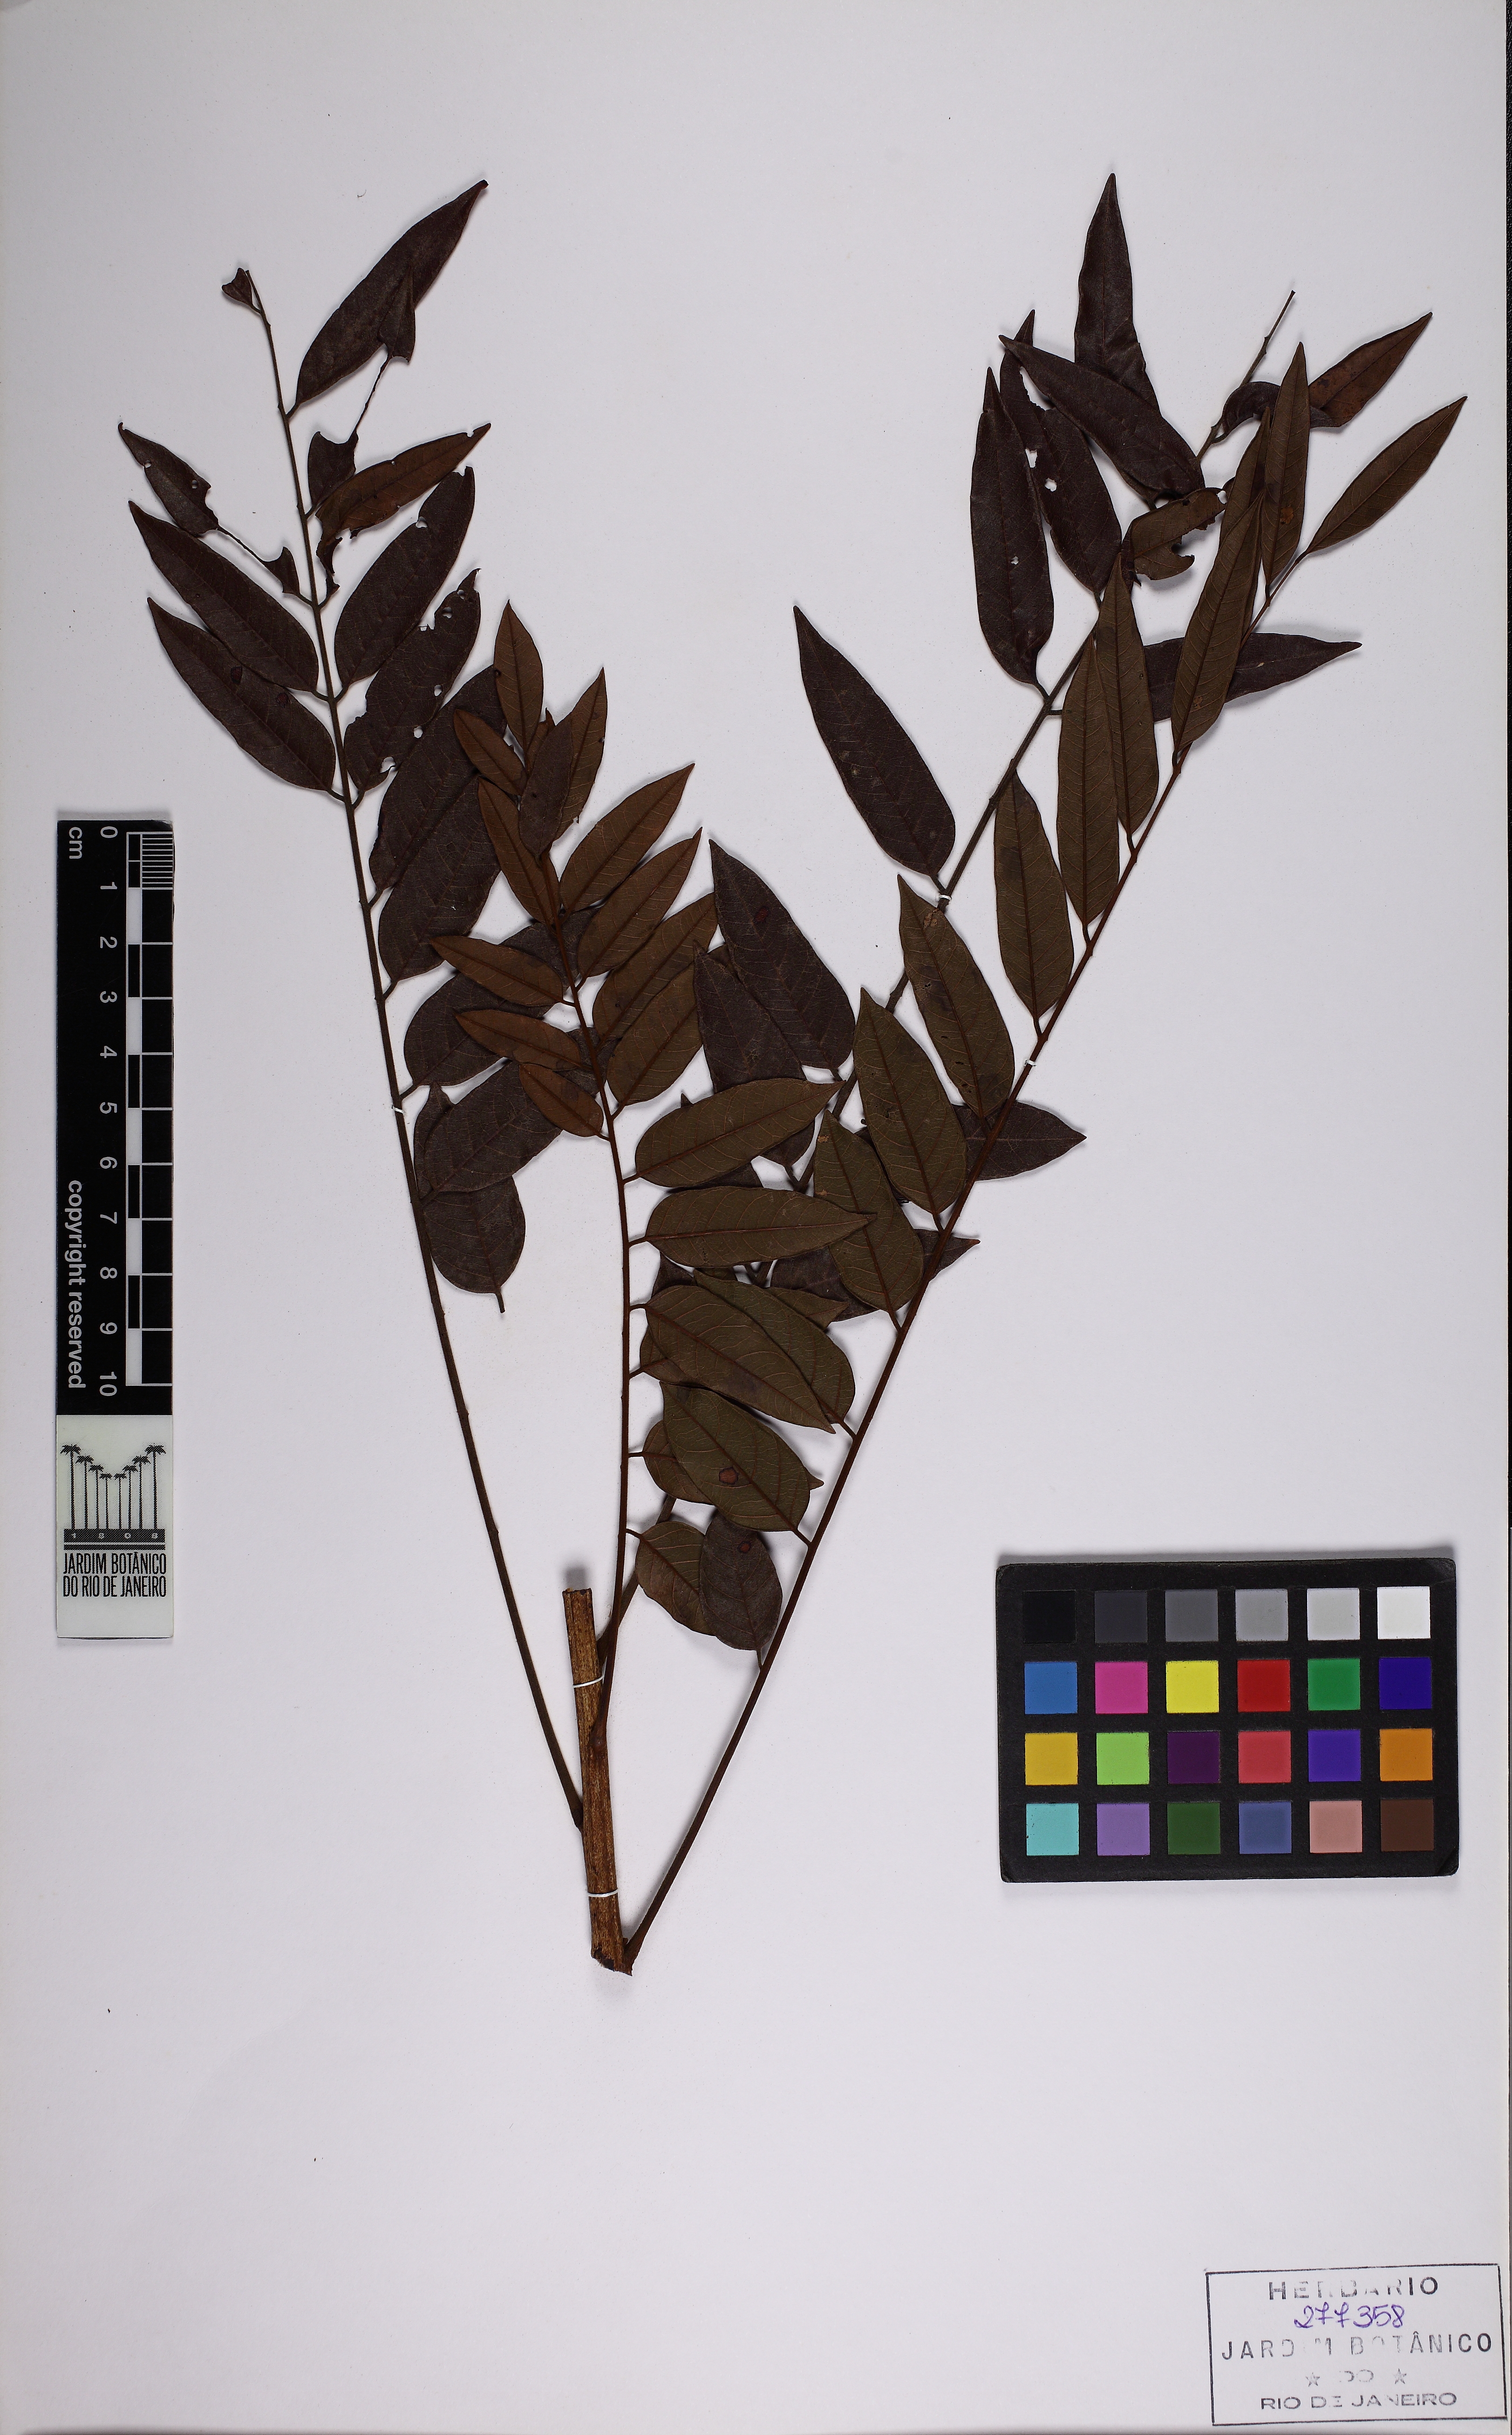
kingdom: Plantae
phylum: Tracheophyta
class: Magnoliopsida
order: Fabales
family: Fabaceae
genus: Melanoxylon
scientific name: Melanoxylon brauna
